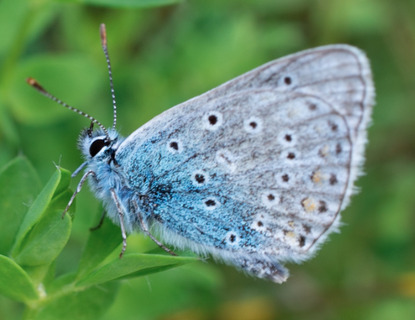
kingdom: Animalia
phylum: Arthropoda
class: Insecta
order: Lepidoptera
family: Lycaenidae
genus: Polyommatus
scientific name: Polyommatus icarus
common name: Almindelig blåfugl
